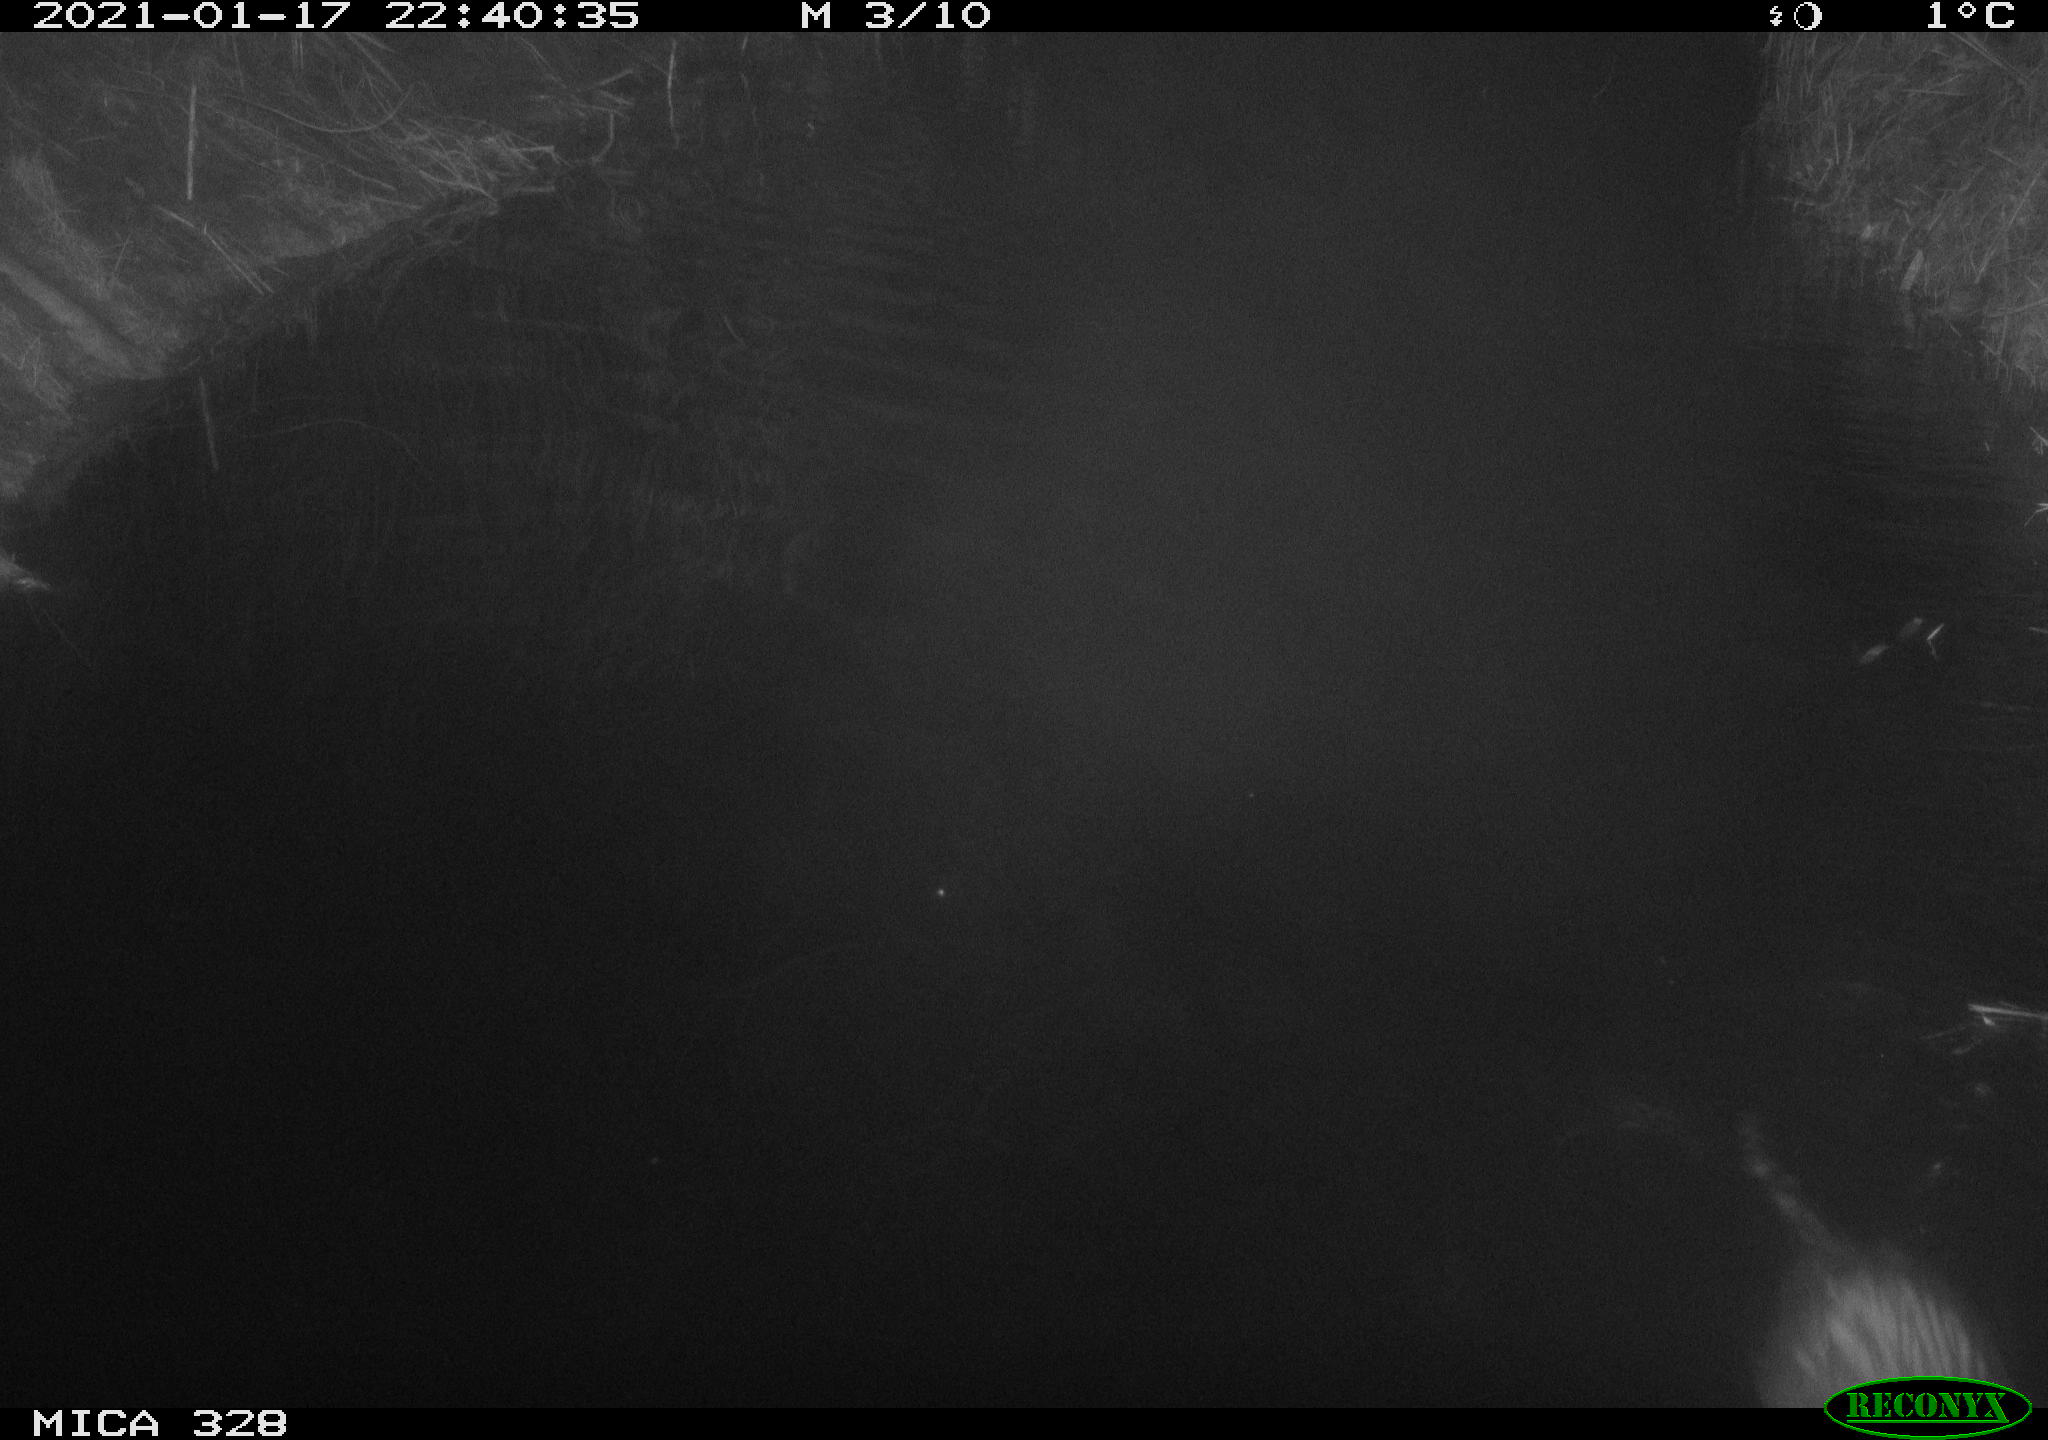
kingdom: Animalia
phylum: Chordata
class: Mammalia
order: Rodentia
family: Myocastoridae
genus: Myocastor
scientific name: Myocastor coypus
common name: Coypu
